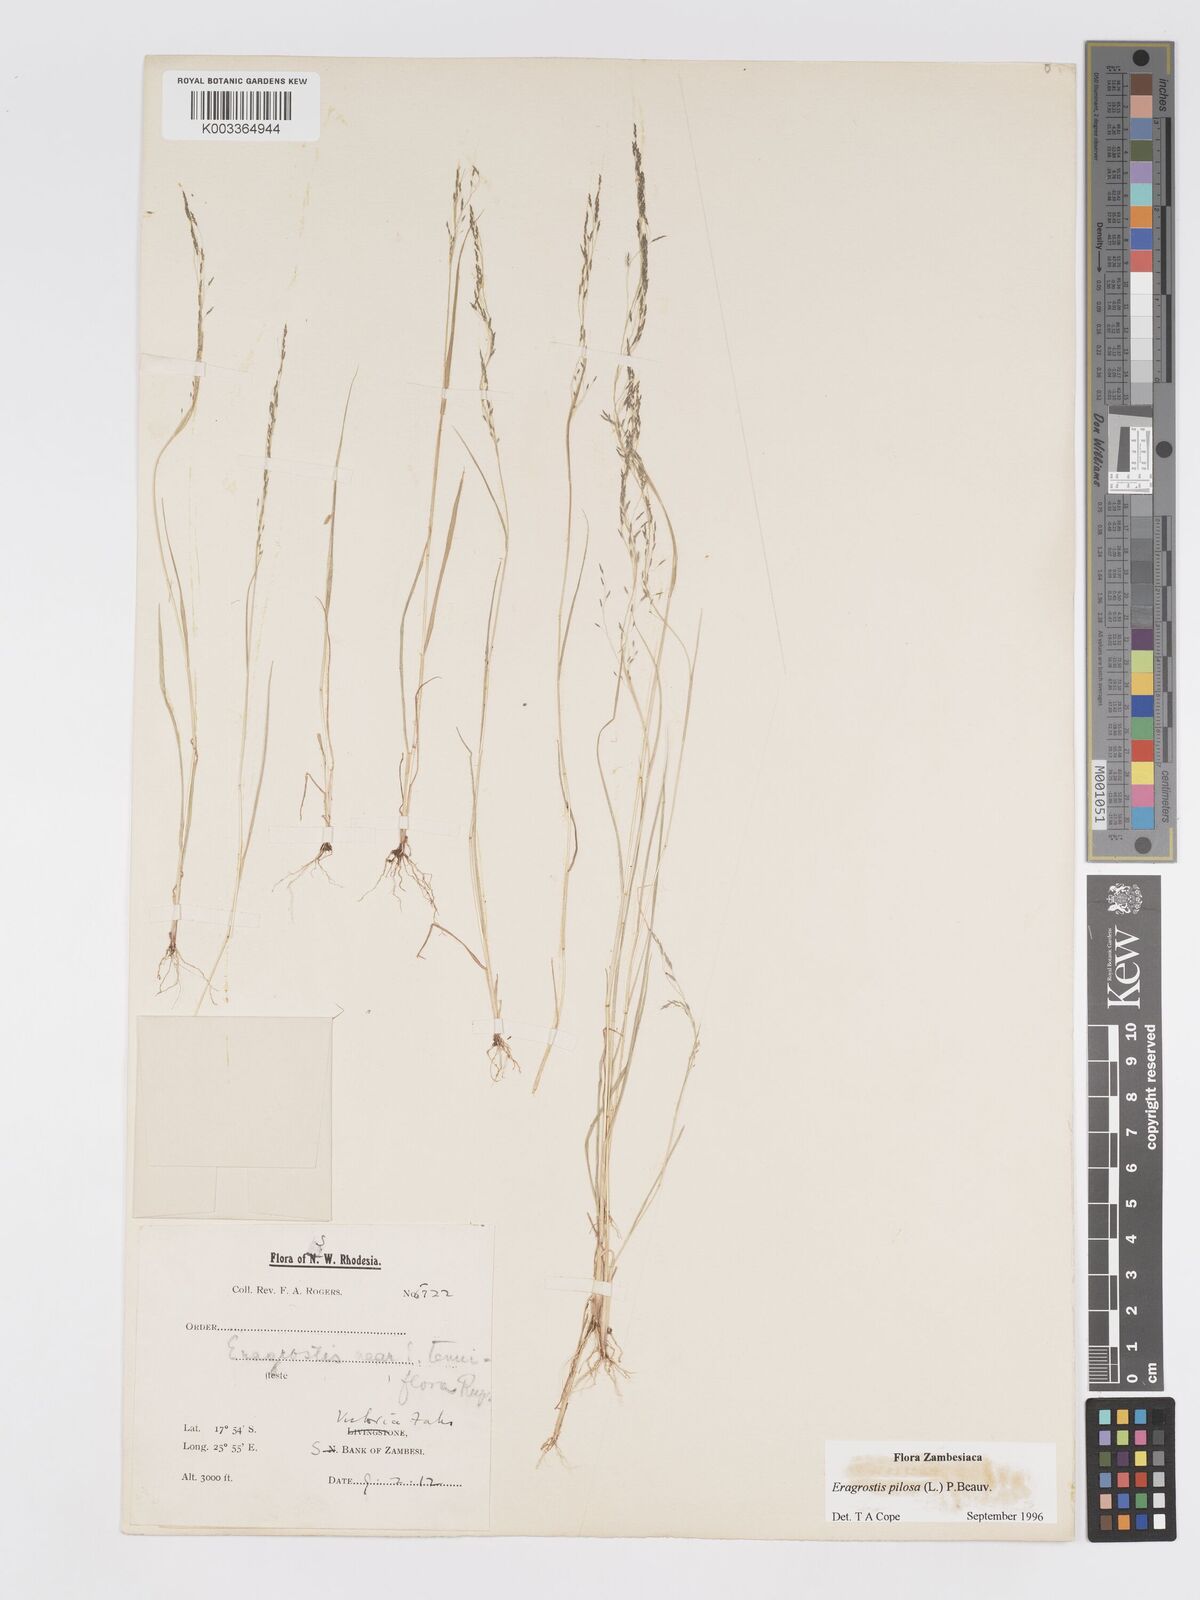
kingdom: Plantae
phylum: Tracheophyta
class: Liliopsida
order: Poales
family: Poaceae
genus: Eragrostis
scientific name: Eragrostis pilosa
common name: Indian lovegrass
